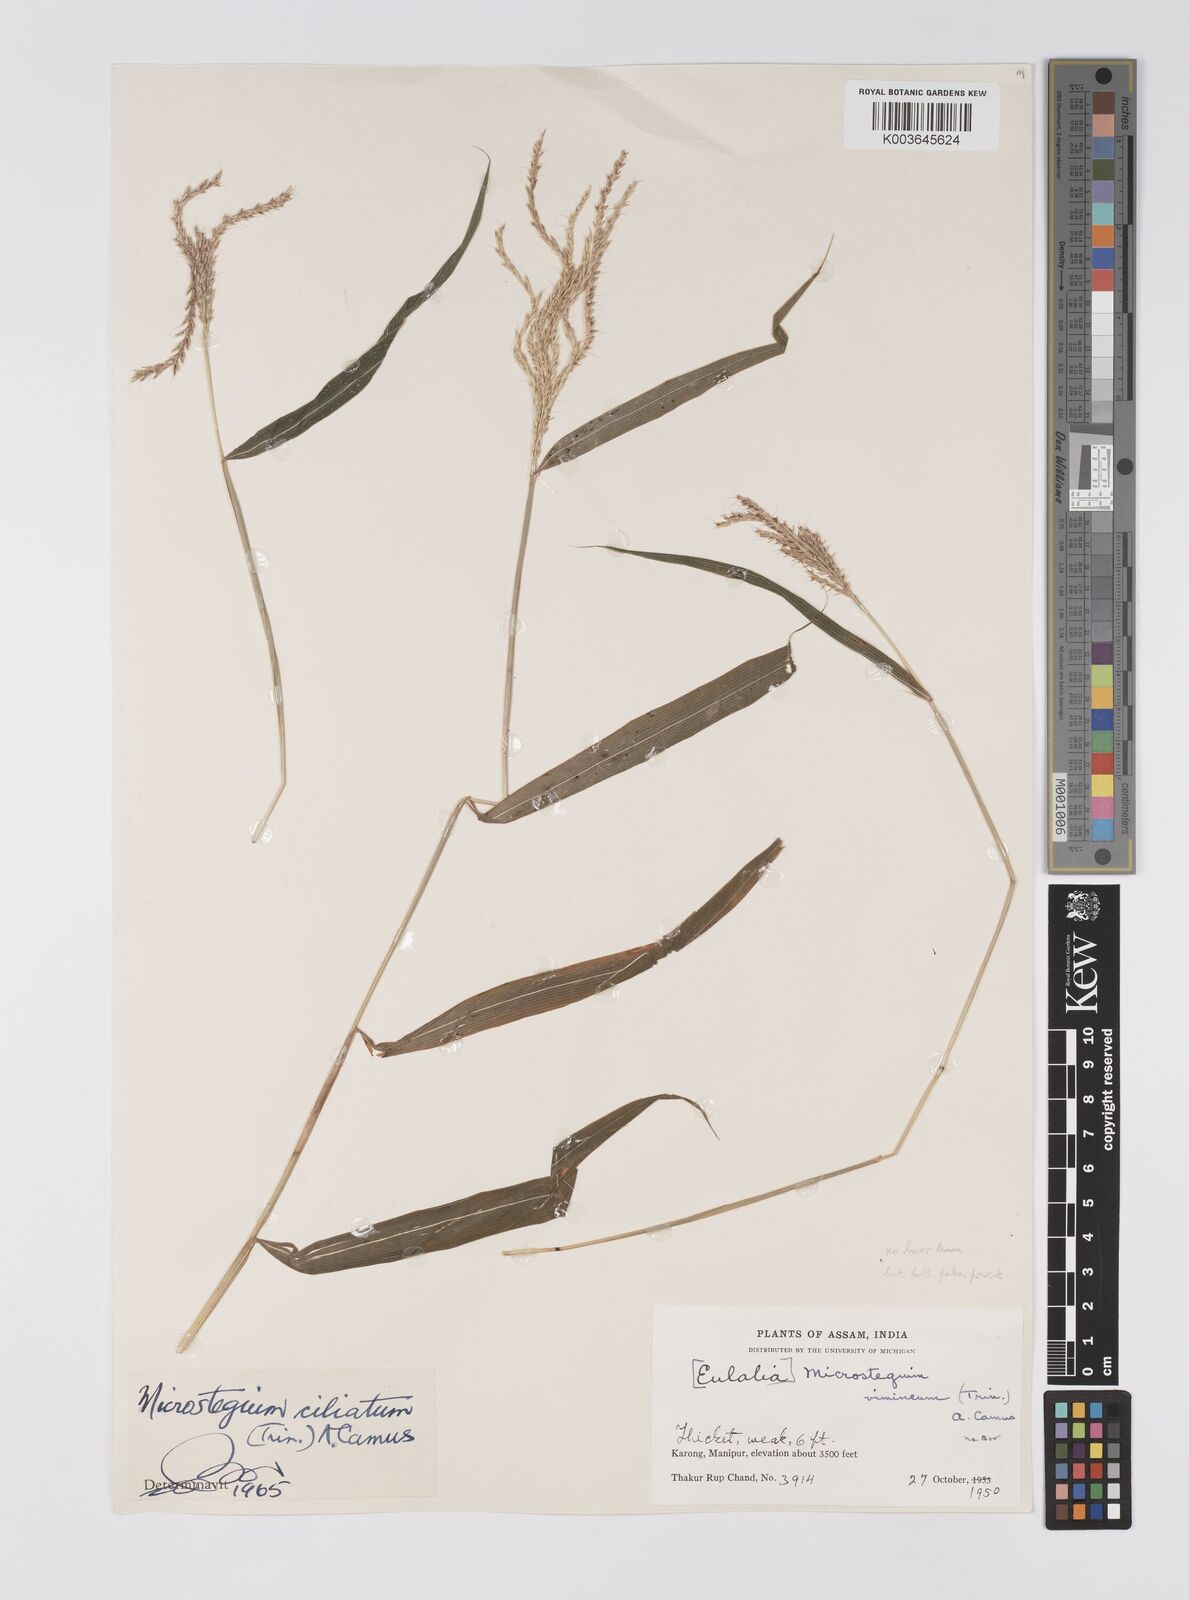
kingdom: Plantae
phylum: Tracheophyta
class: Liliopsida
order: Poales
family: Poaceae
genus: Microstegium
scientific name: Microstegium fasciculatum
